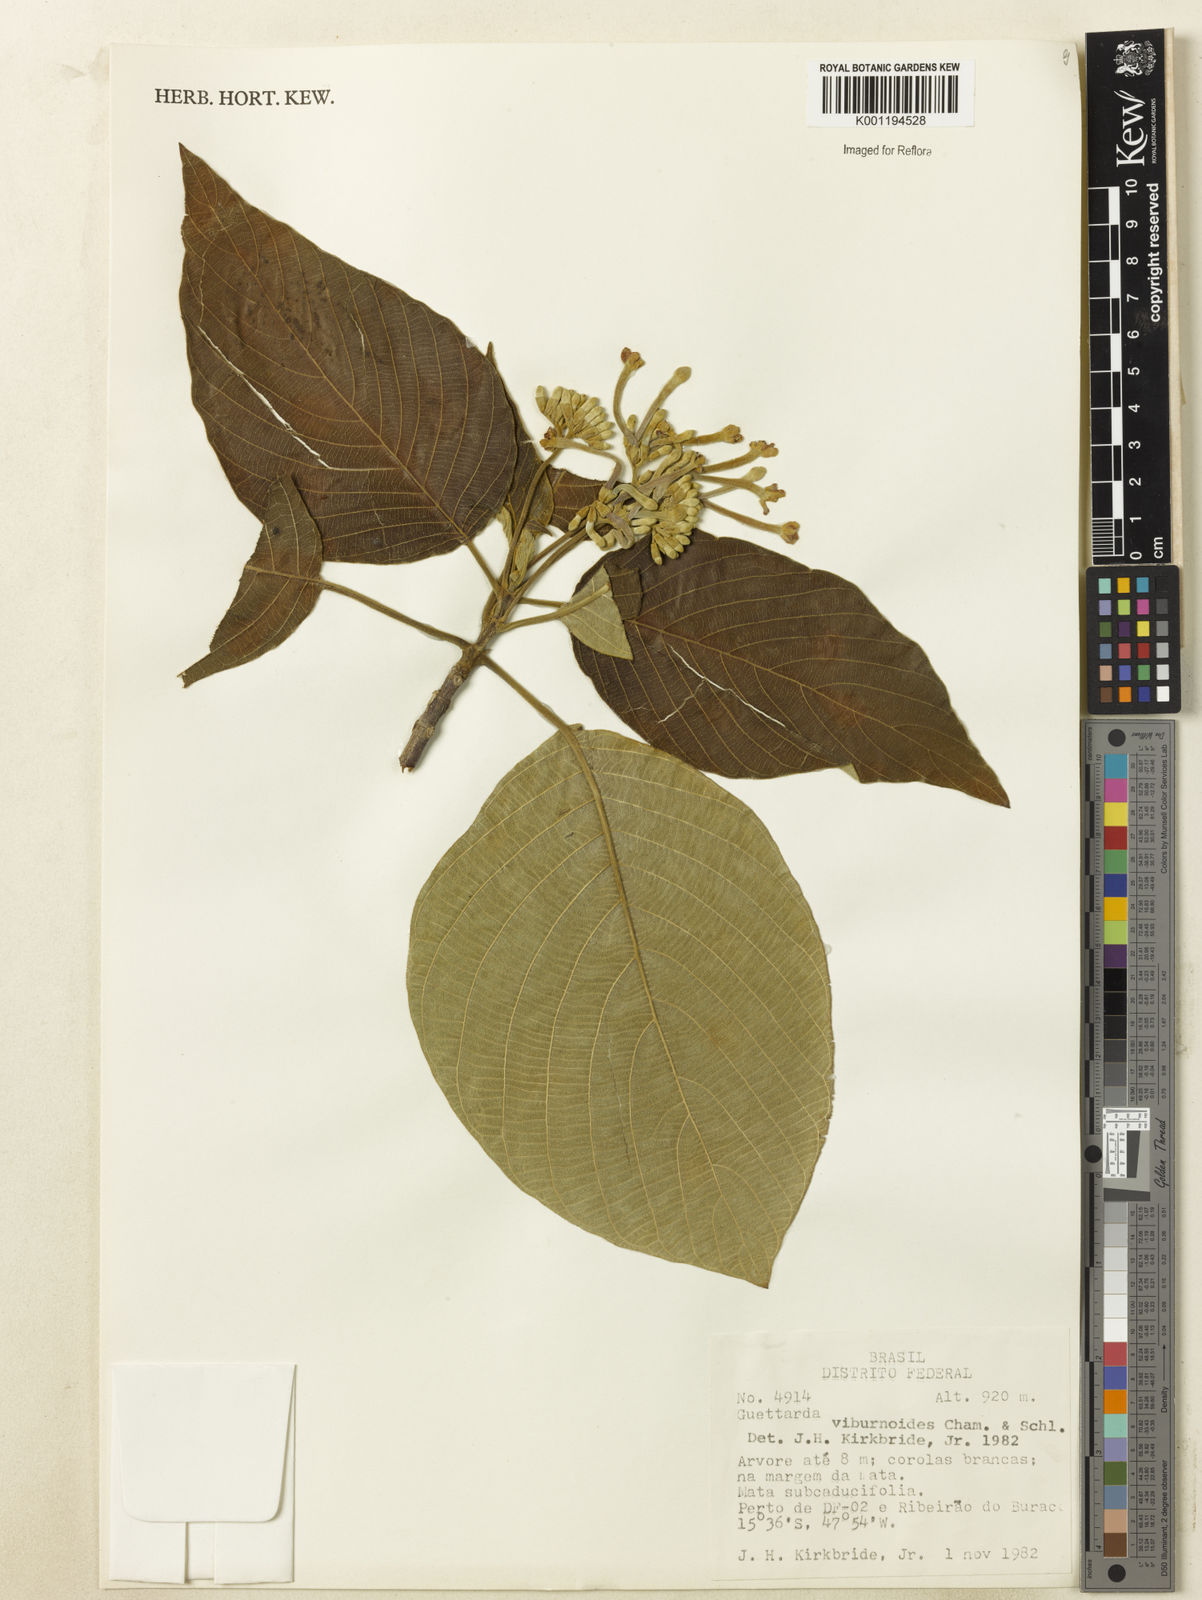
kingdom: Plantae
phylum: Tracheophyta
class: Magnoliopsida
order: Gentianales
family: Rubiaceae
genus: Guettarda
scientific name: Guettarda viburnoides
